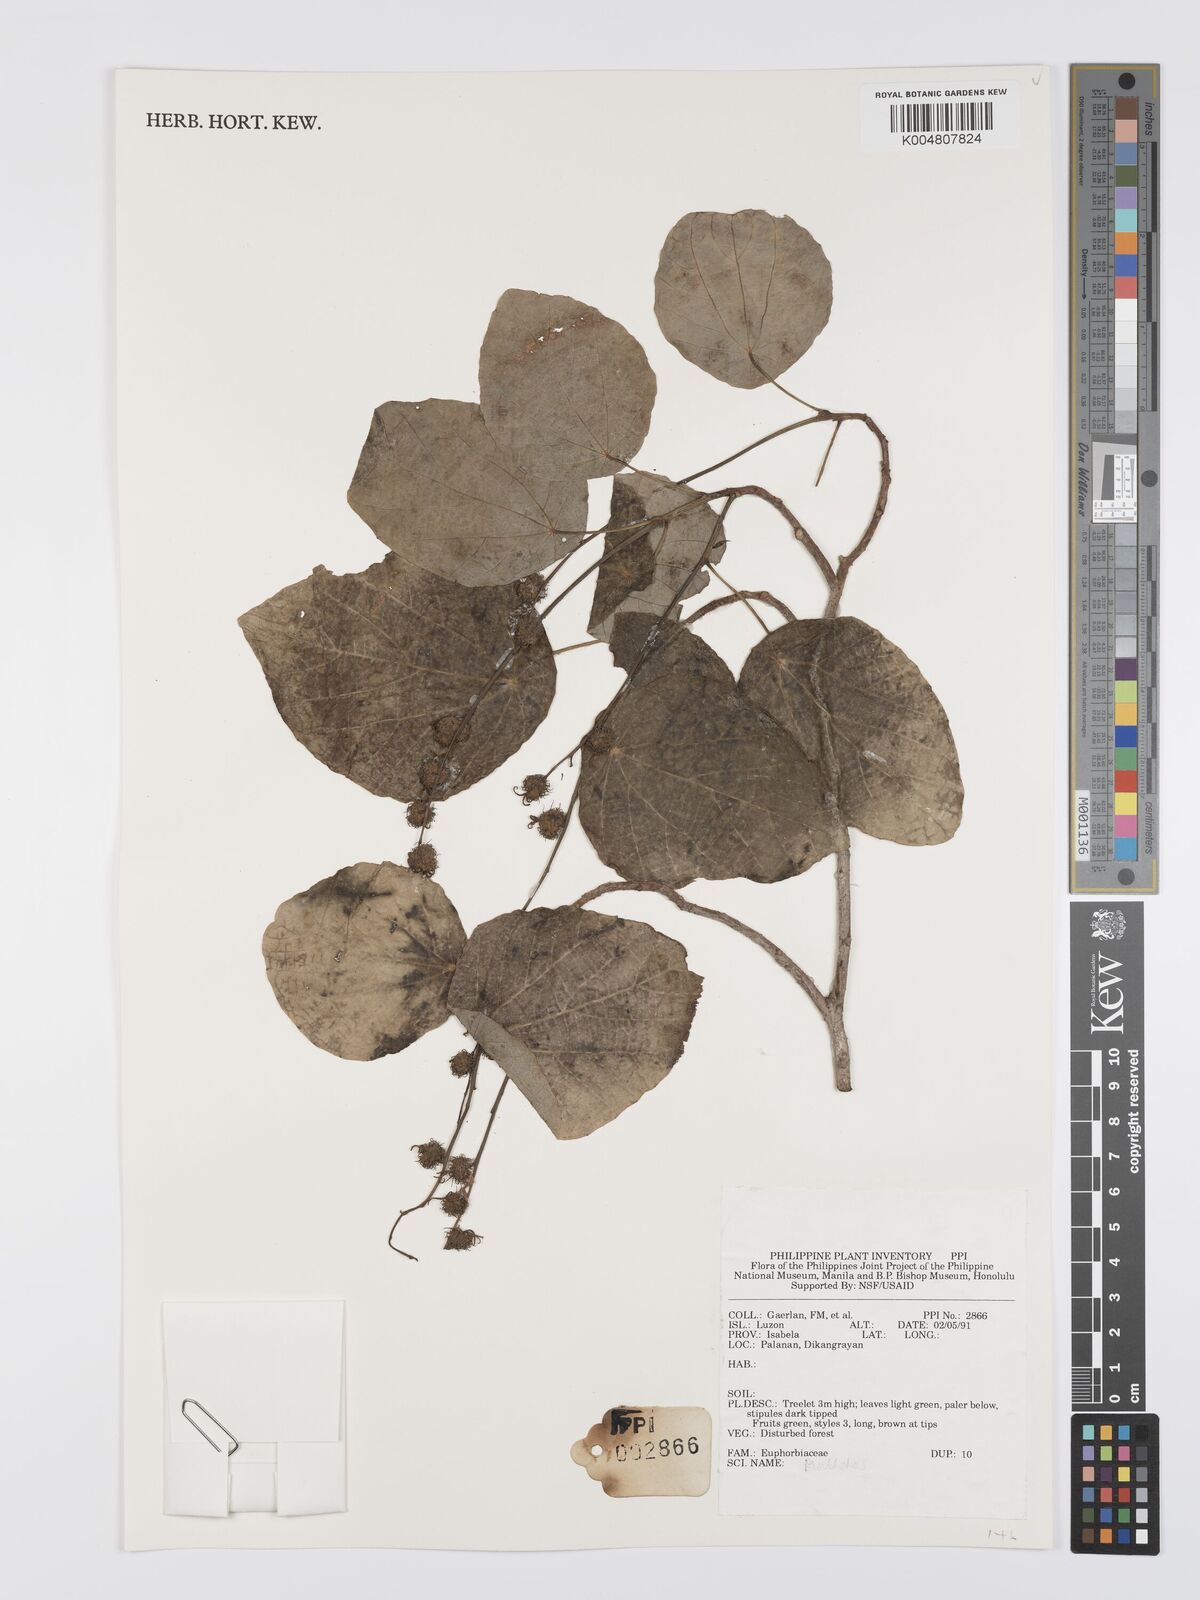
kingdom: Plantae
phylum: Tracheophyta
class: Magnoliopsida
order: Malpighiales
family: Euphorbiaceae
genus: Mallotus
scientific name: Mallotus
